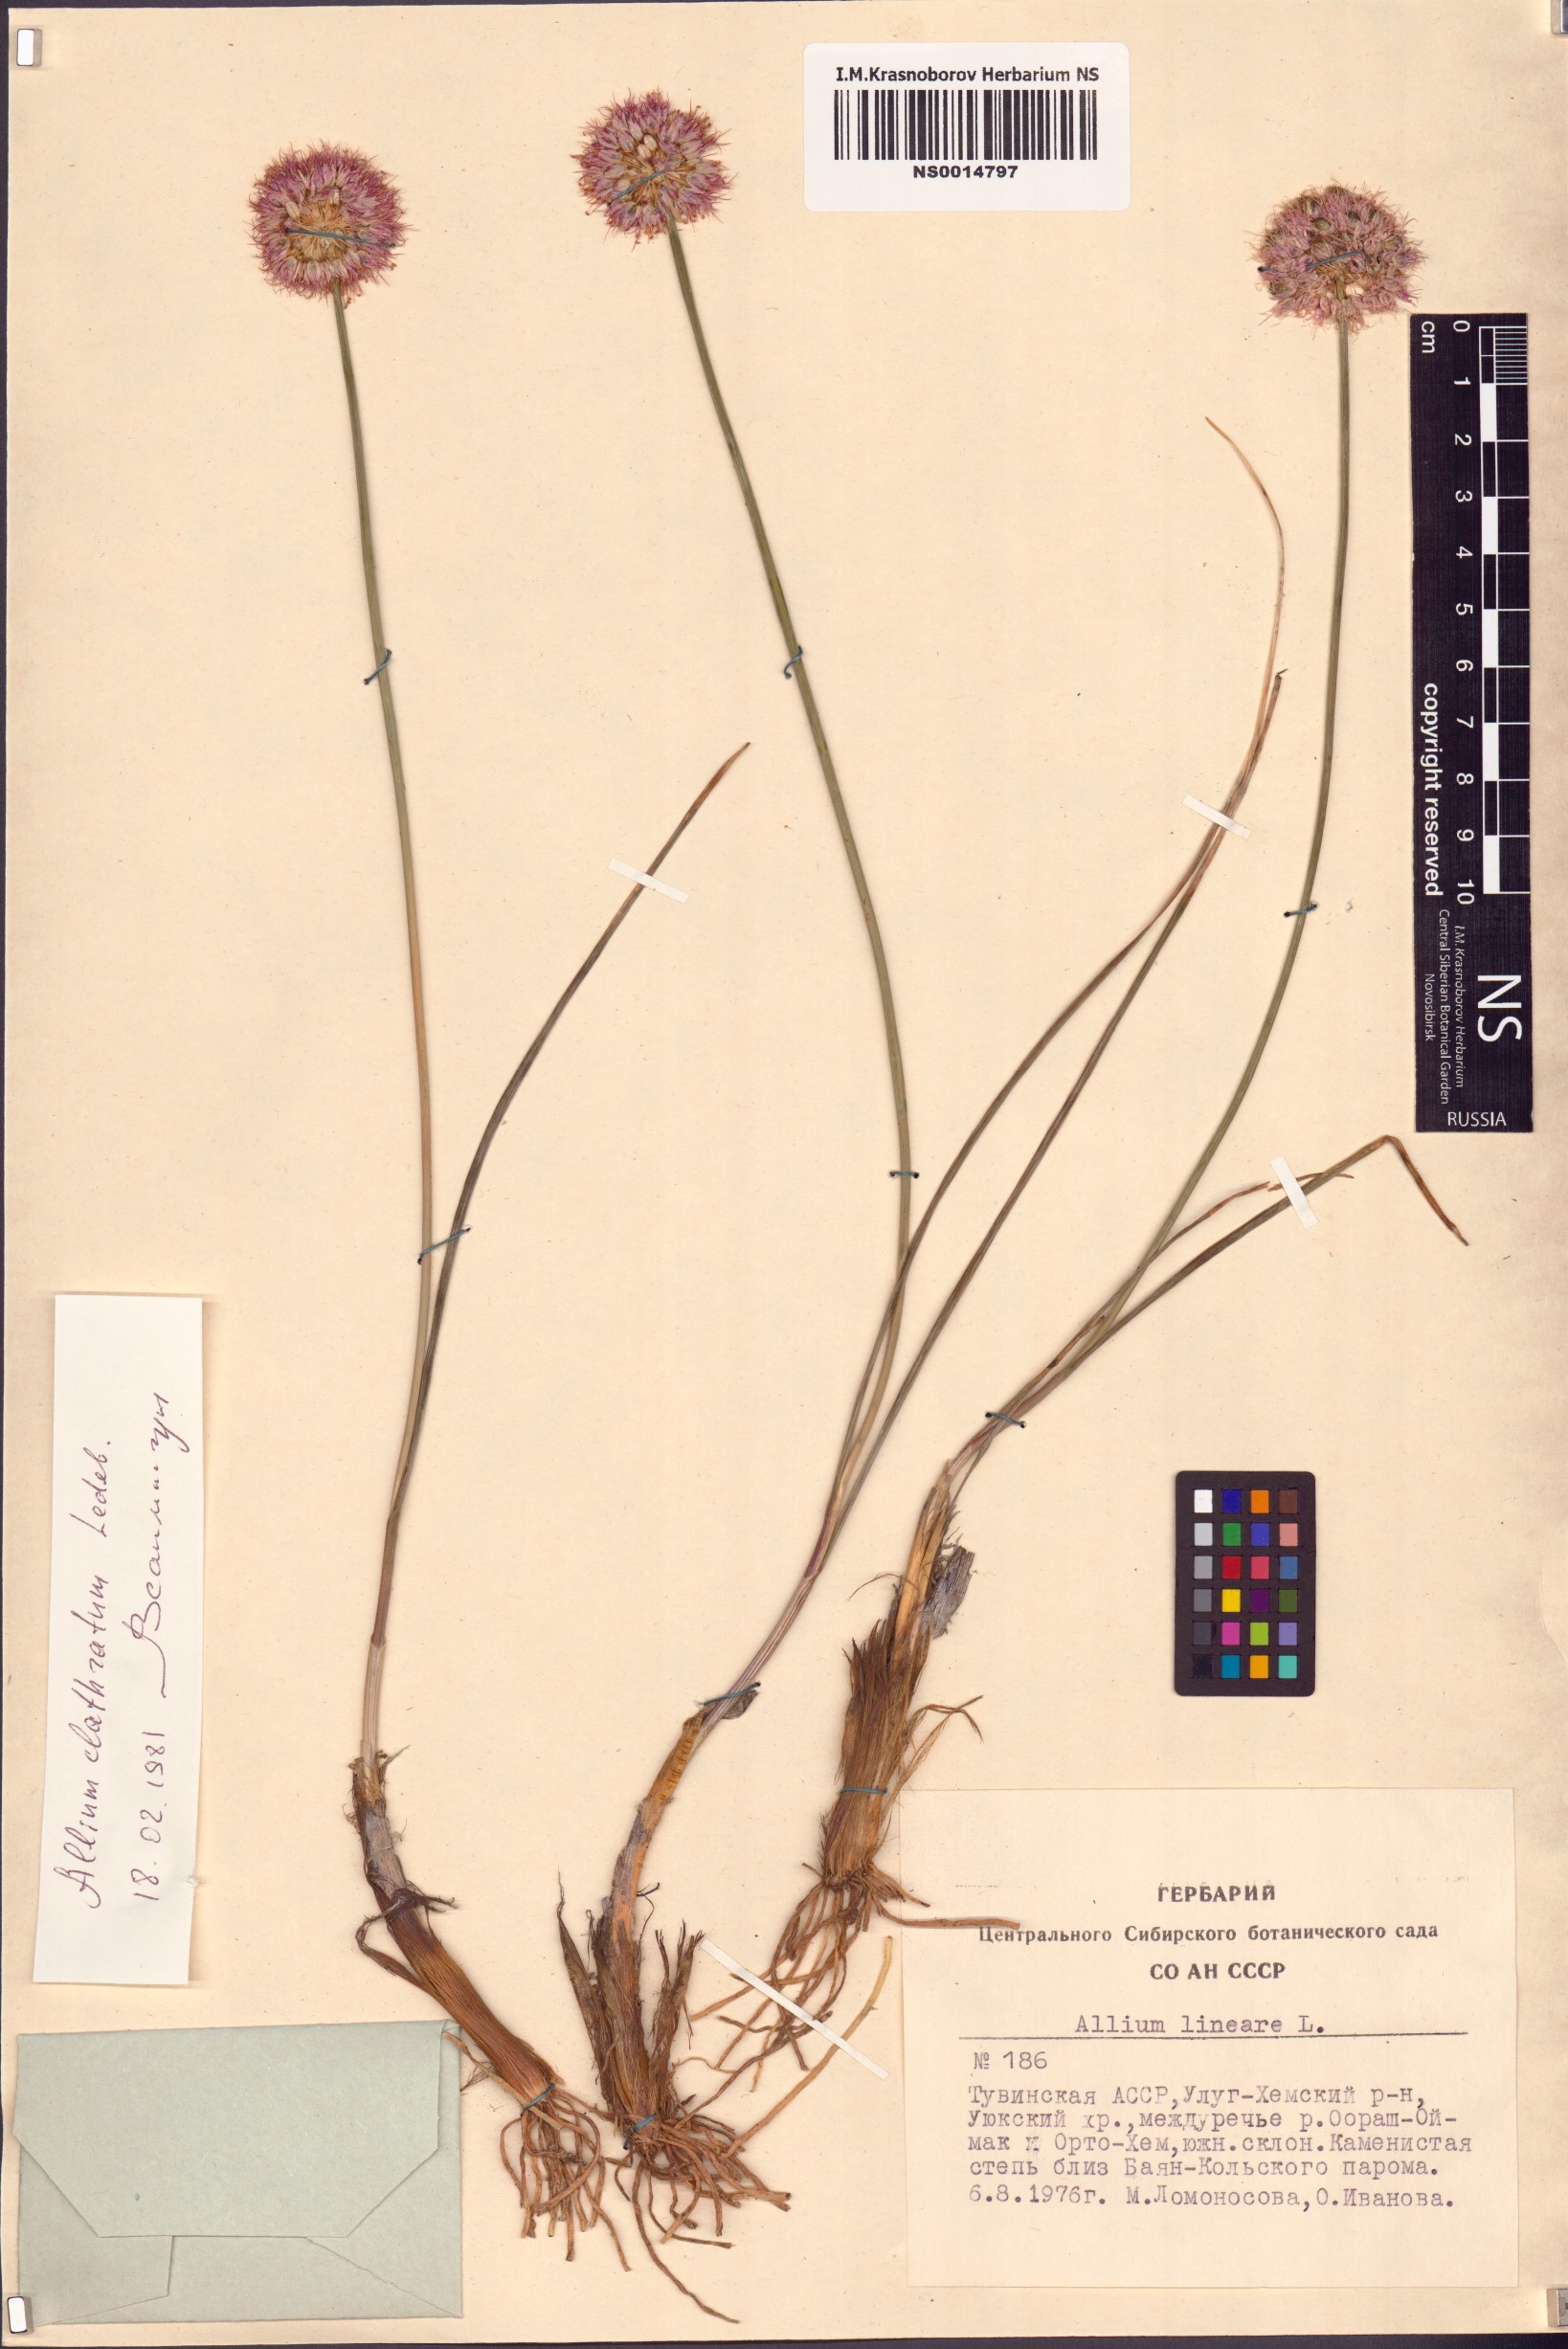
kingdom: Plantae
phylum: Tracheophyta
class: Liliopsida
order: Asparagales
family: Amaryllidaceae
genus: Allium
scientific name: Allium clathratum
